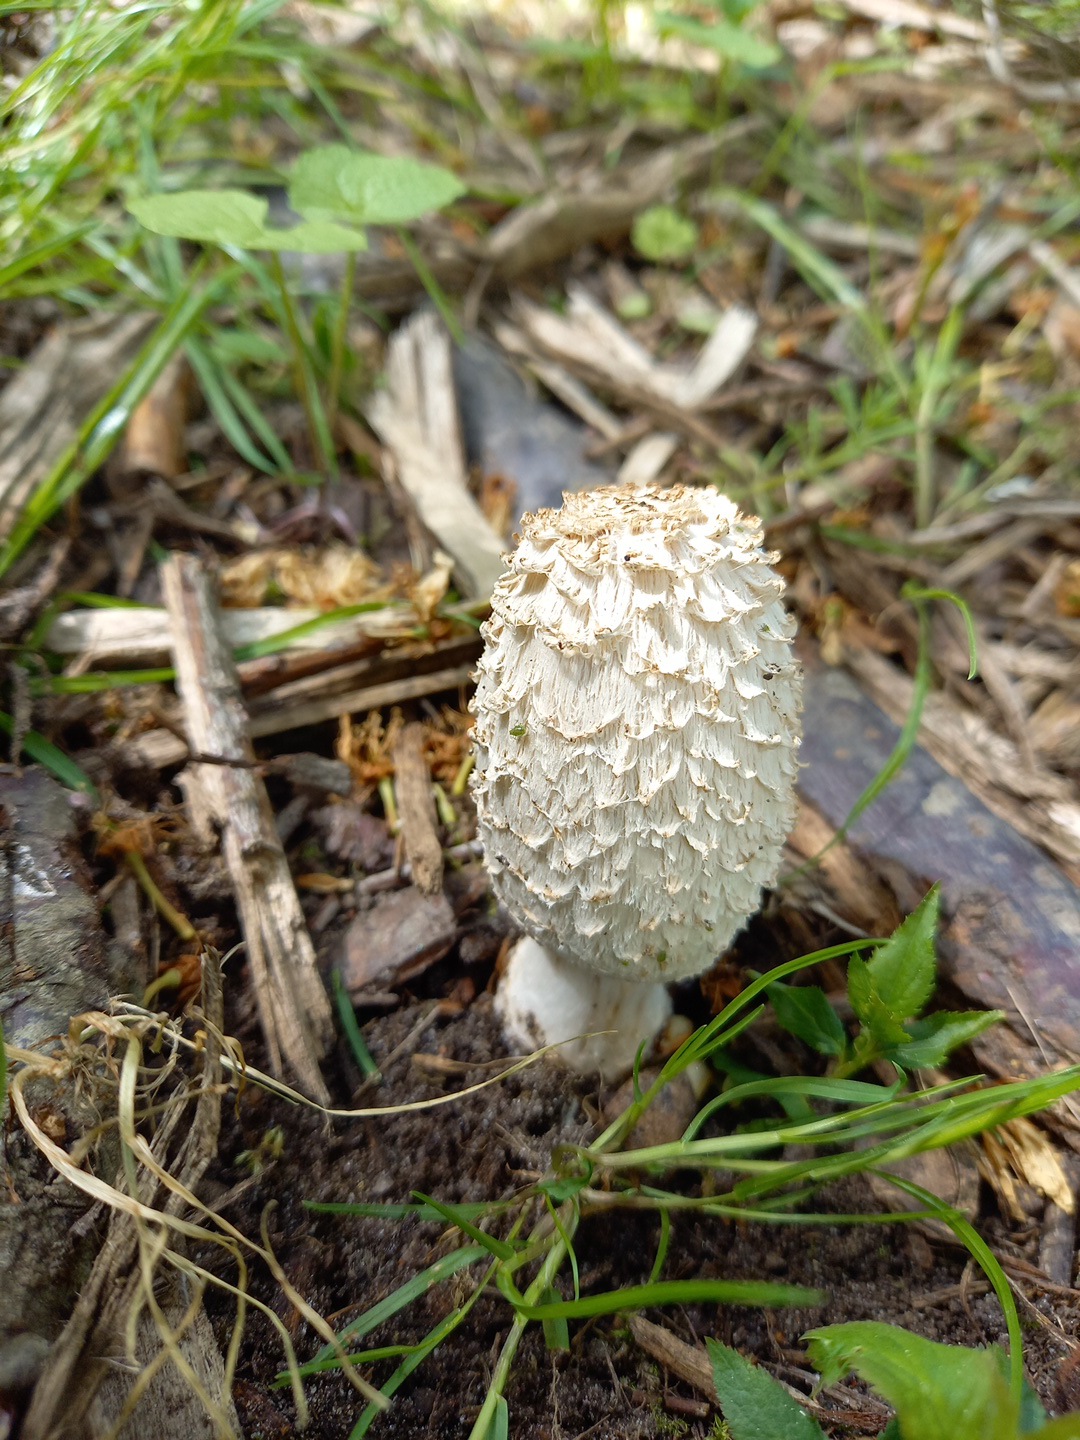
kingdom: Fungi
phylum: Basidiomycota
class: Agaricomycetes
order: Agaricales
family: Agaricaceae
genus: Coprinus
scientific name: Coprinus comatus
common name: stor parykhat
